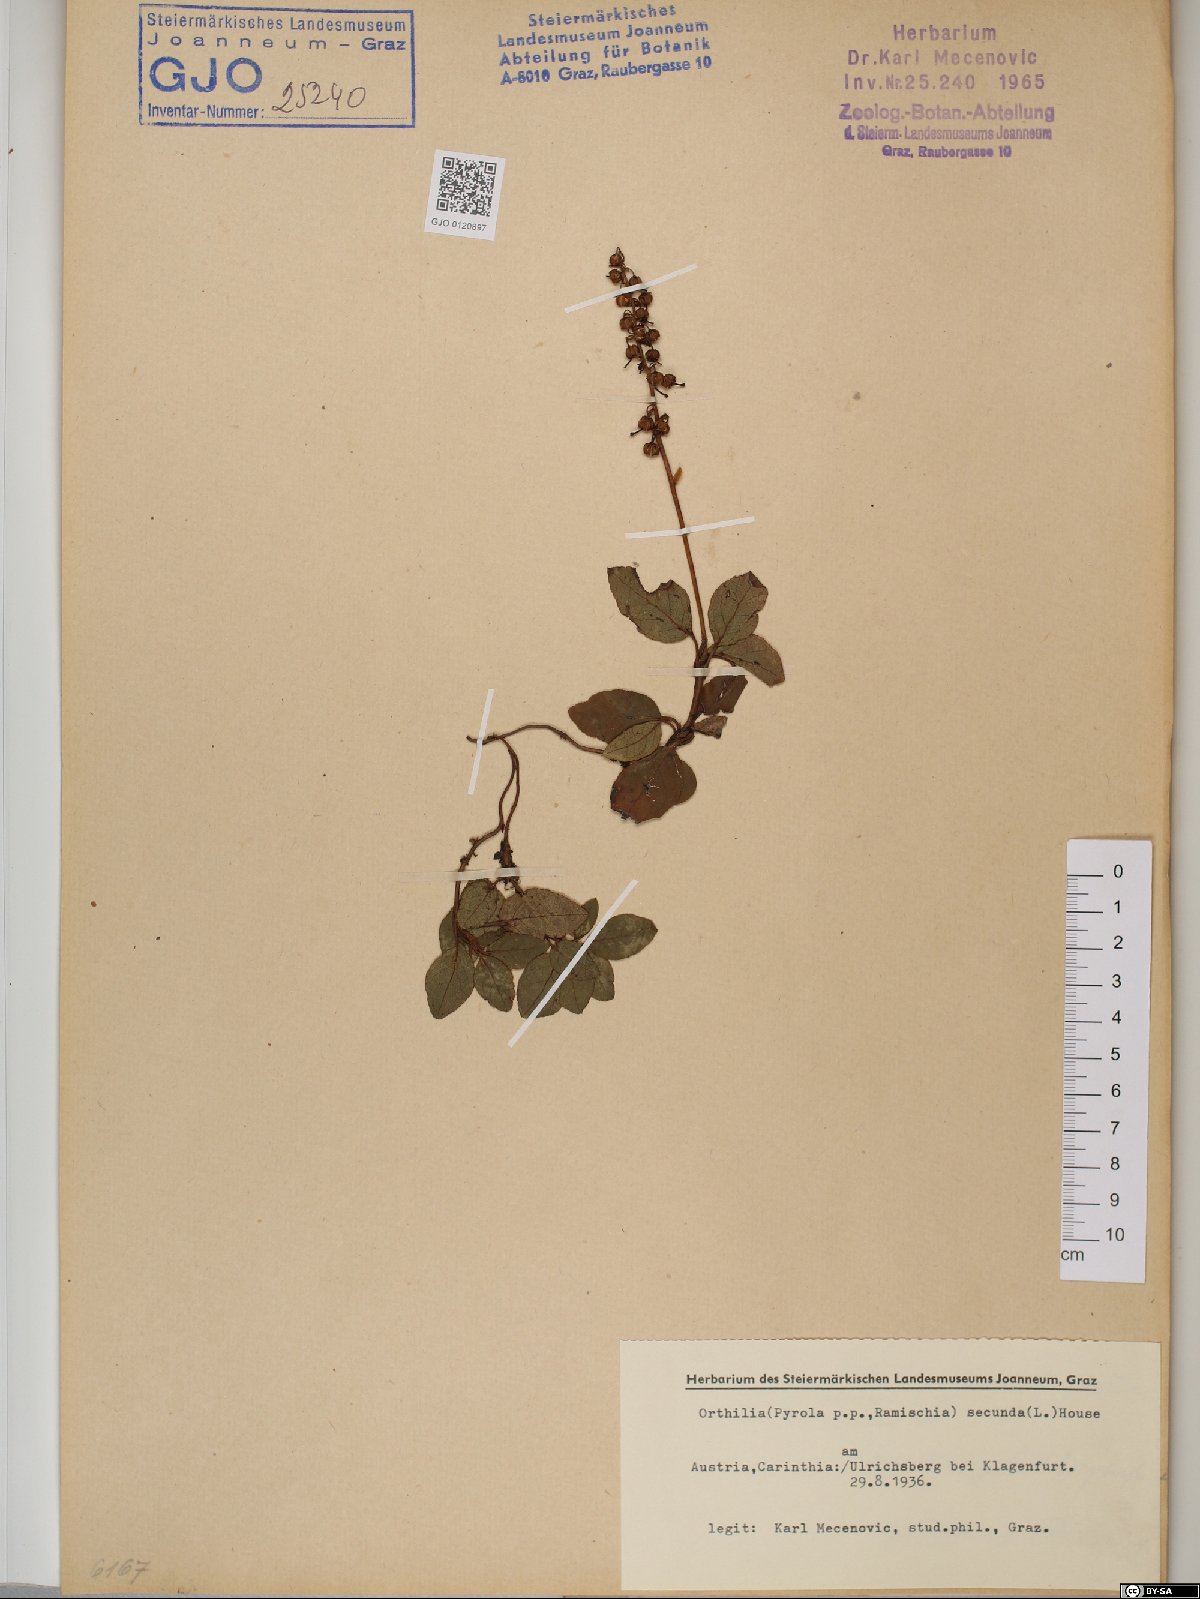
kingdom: Plantae
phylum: Tracheophyta
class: Magnoliopsida
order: Ericales
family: Ericaceae
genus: Orthilia
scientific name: Orthilia secunda
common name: One-sided orthilia
